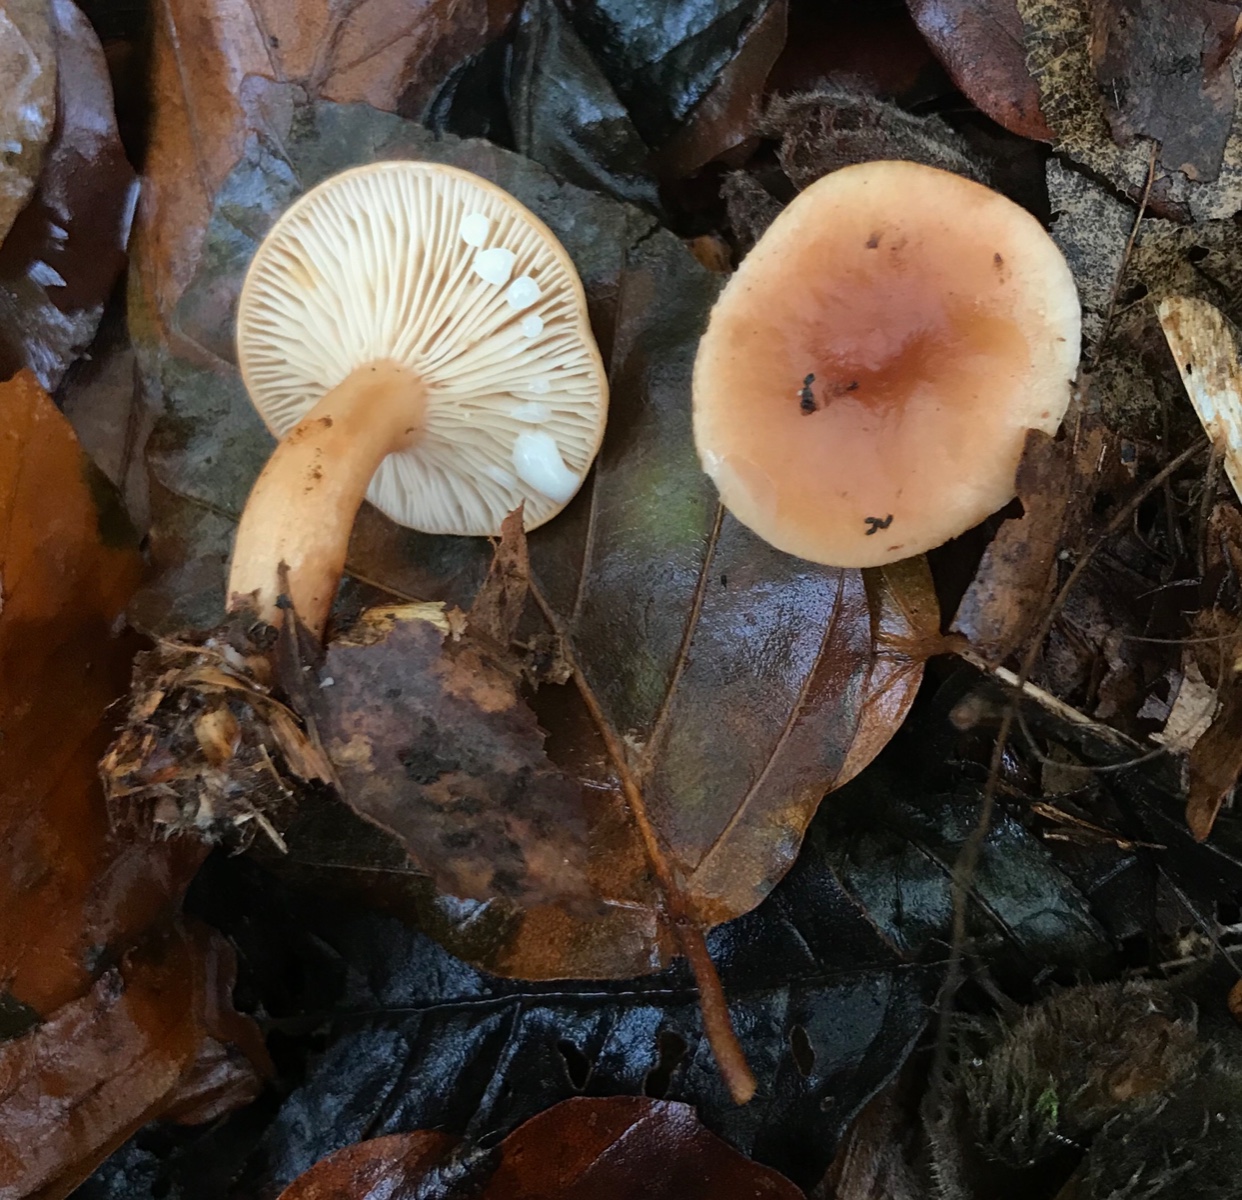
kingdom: Fungi
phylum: Basidiomycota
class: Agaricomycetes
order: Russulales
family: Russulaceae
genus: Lactarius
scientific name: Lactarius subdulcis
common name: sødlig mælkehat
